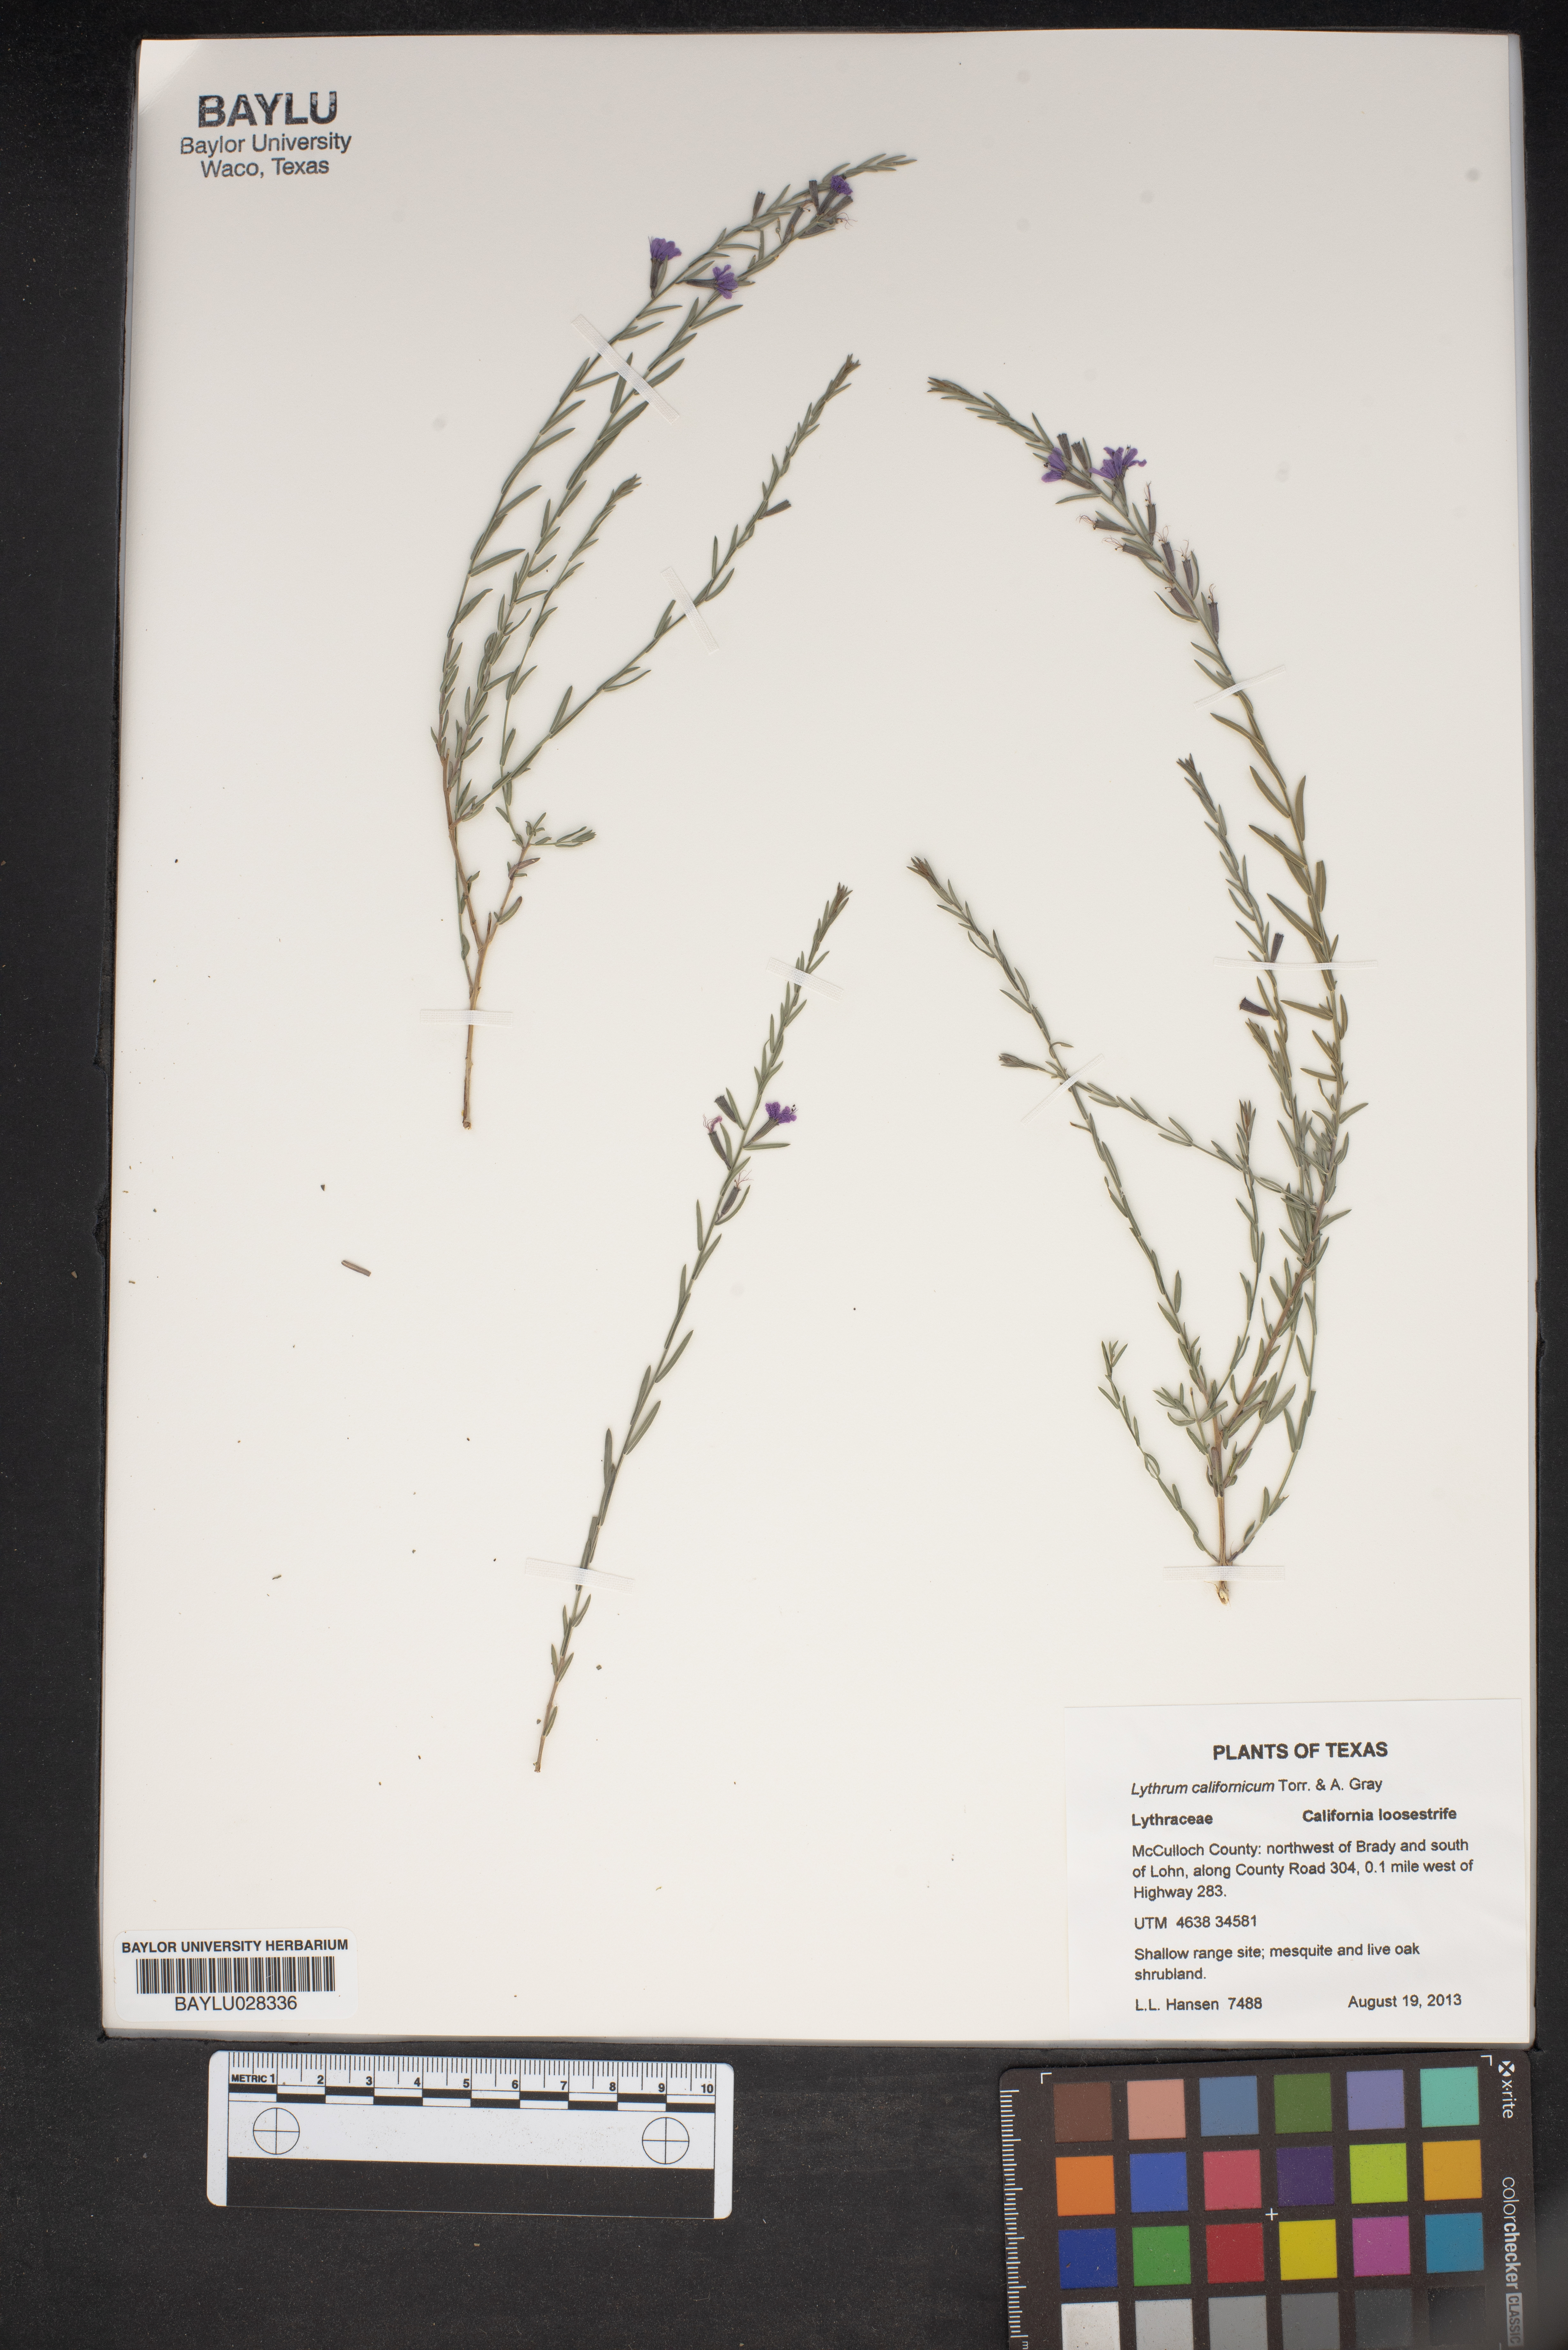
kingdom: Plantae
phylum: Tracheophyta
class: Magnoliopsida
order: Myrtales
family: Lythraceae
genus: Lythrum
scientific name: Lythrum californicum
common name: California loosestrife
